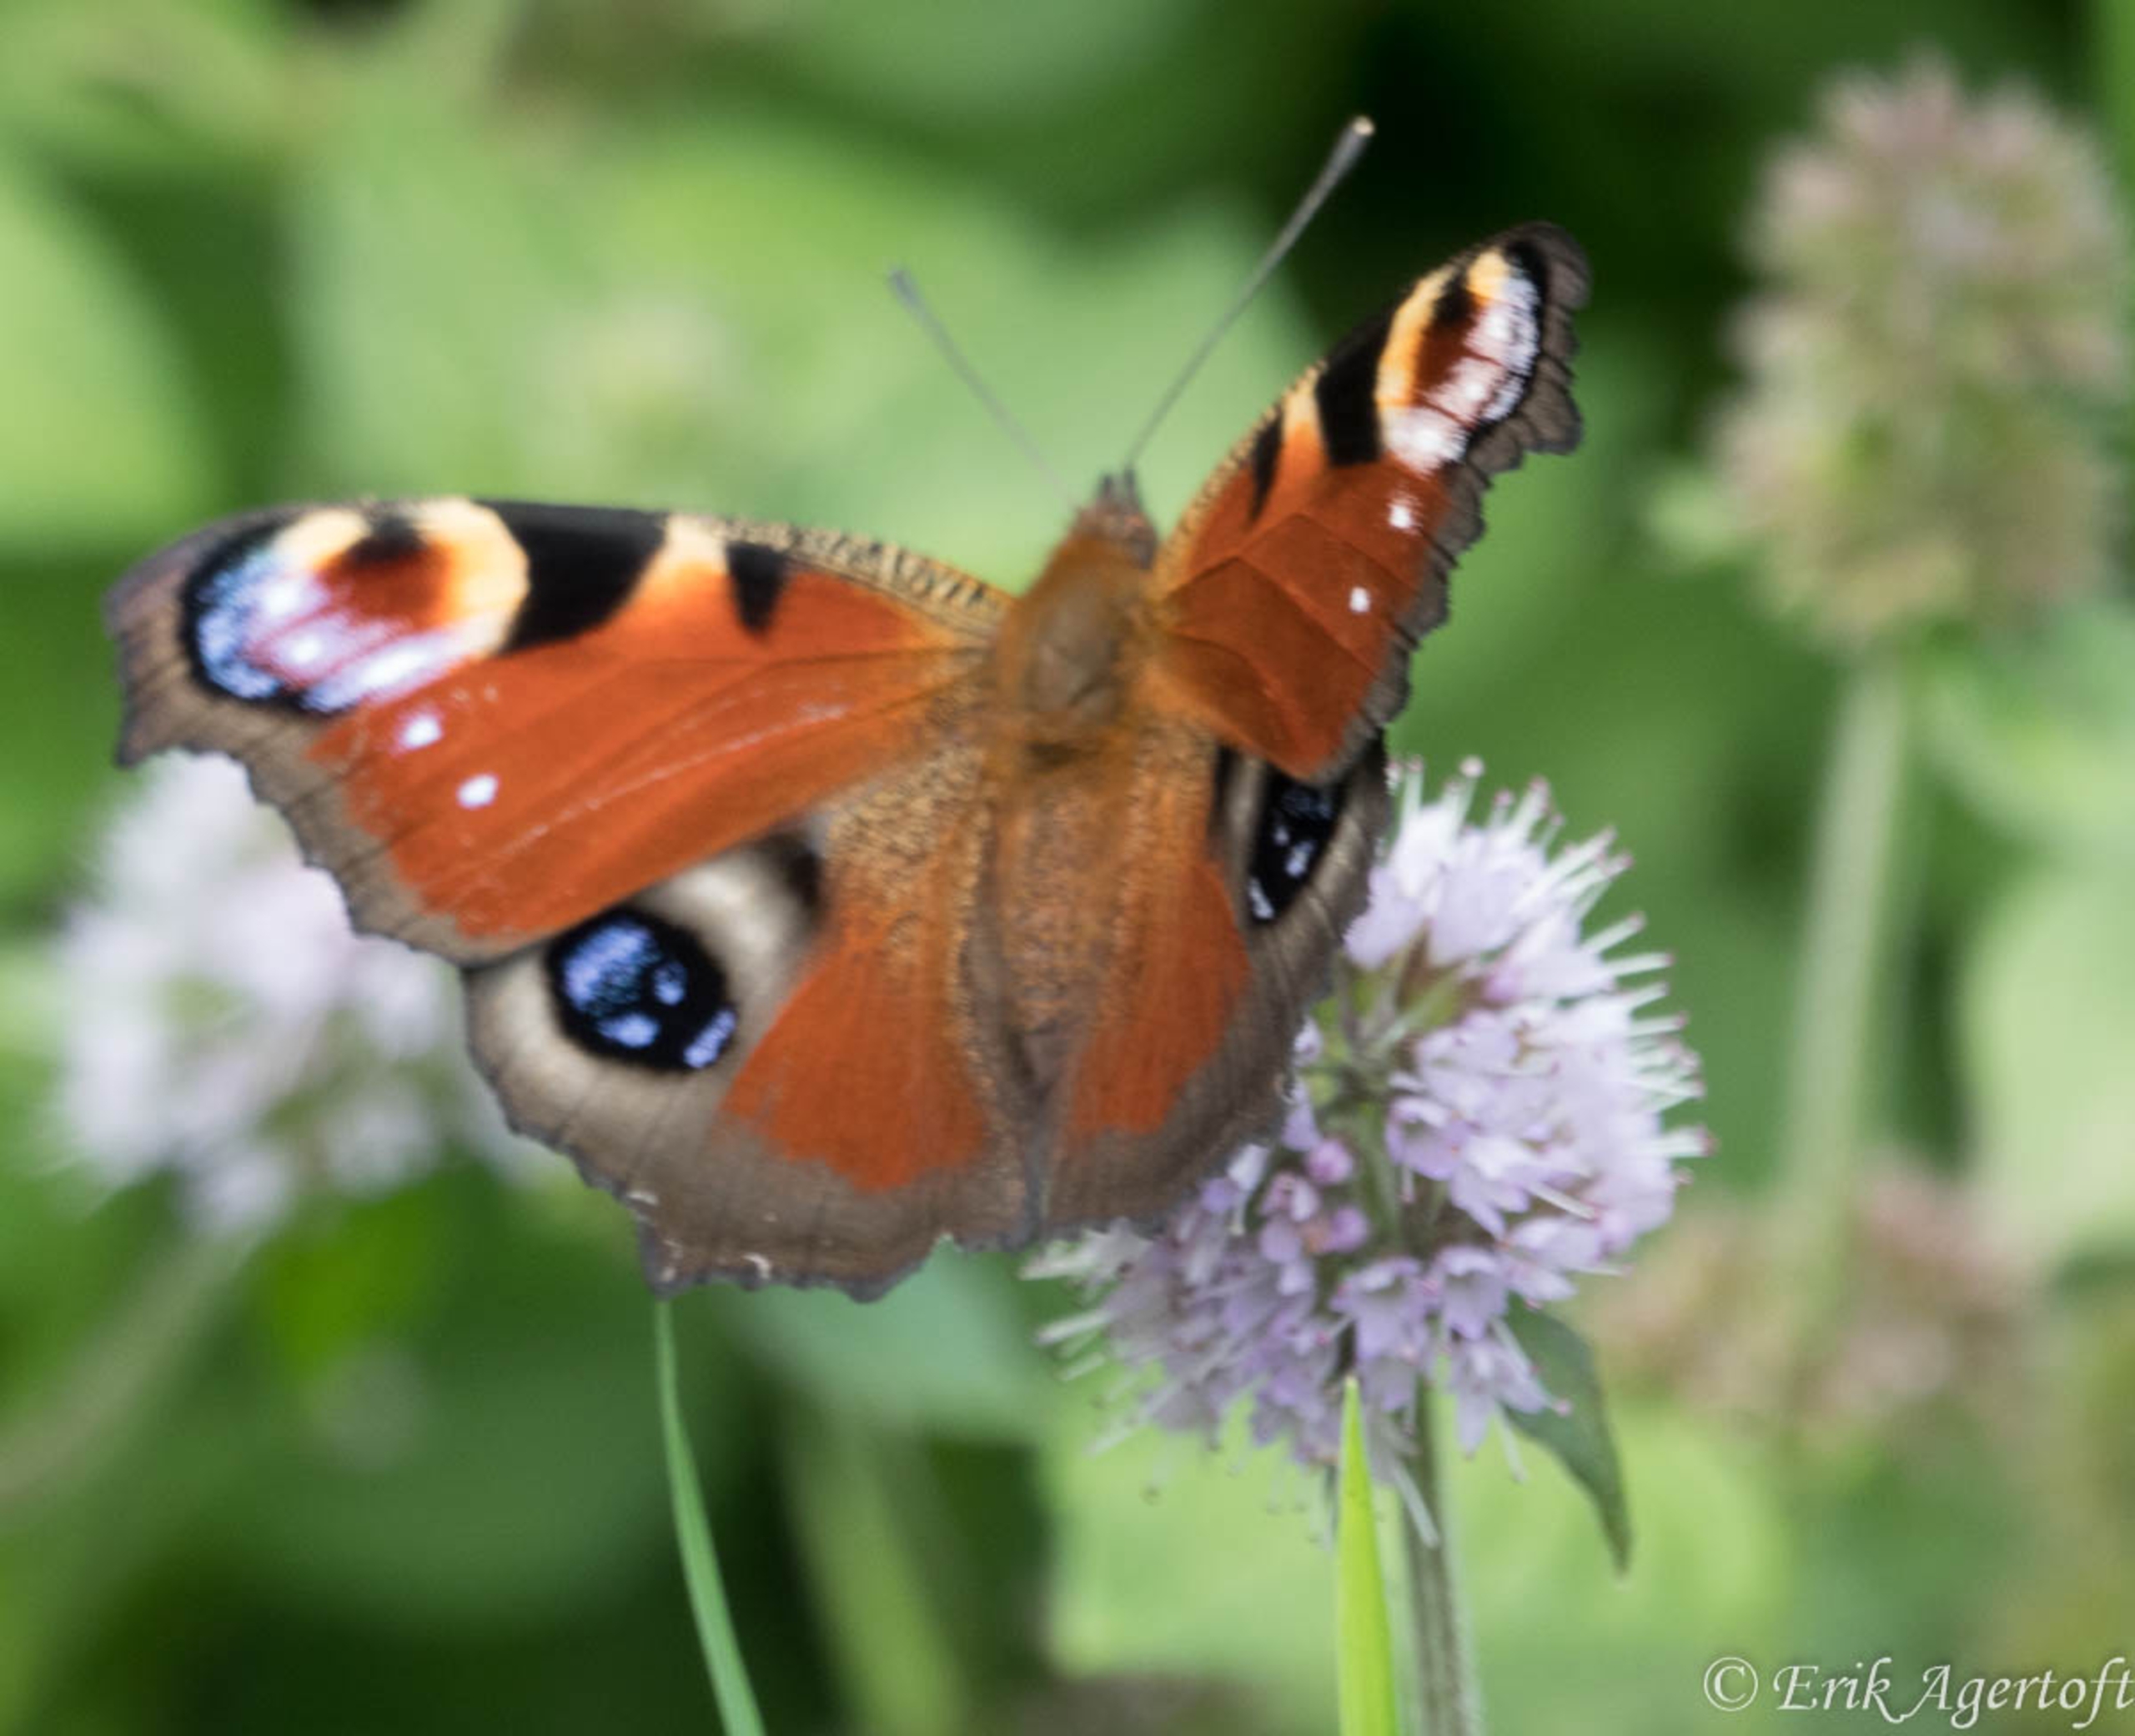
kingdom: Animalia
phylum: Arthropoda
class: Insecta
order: Lepidoptera
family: Nymphalidae
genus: Aglais
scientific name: Aglais io
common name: Dagpåfugleøje
